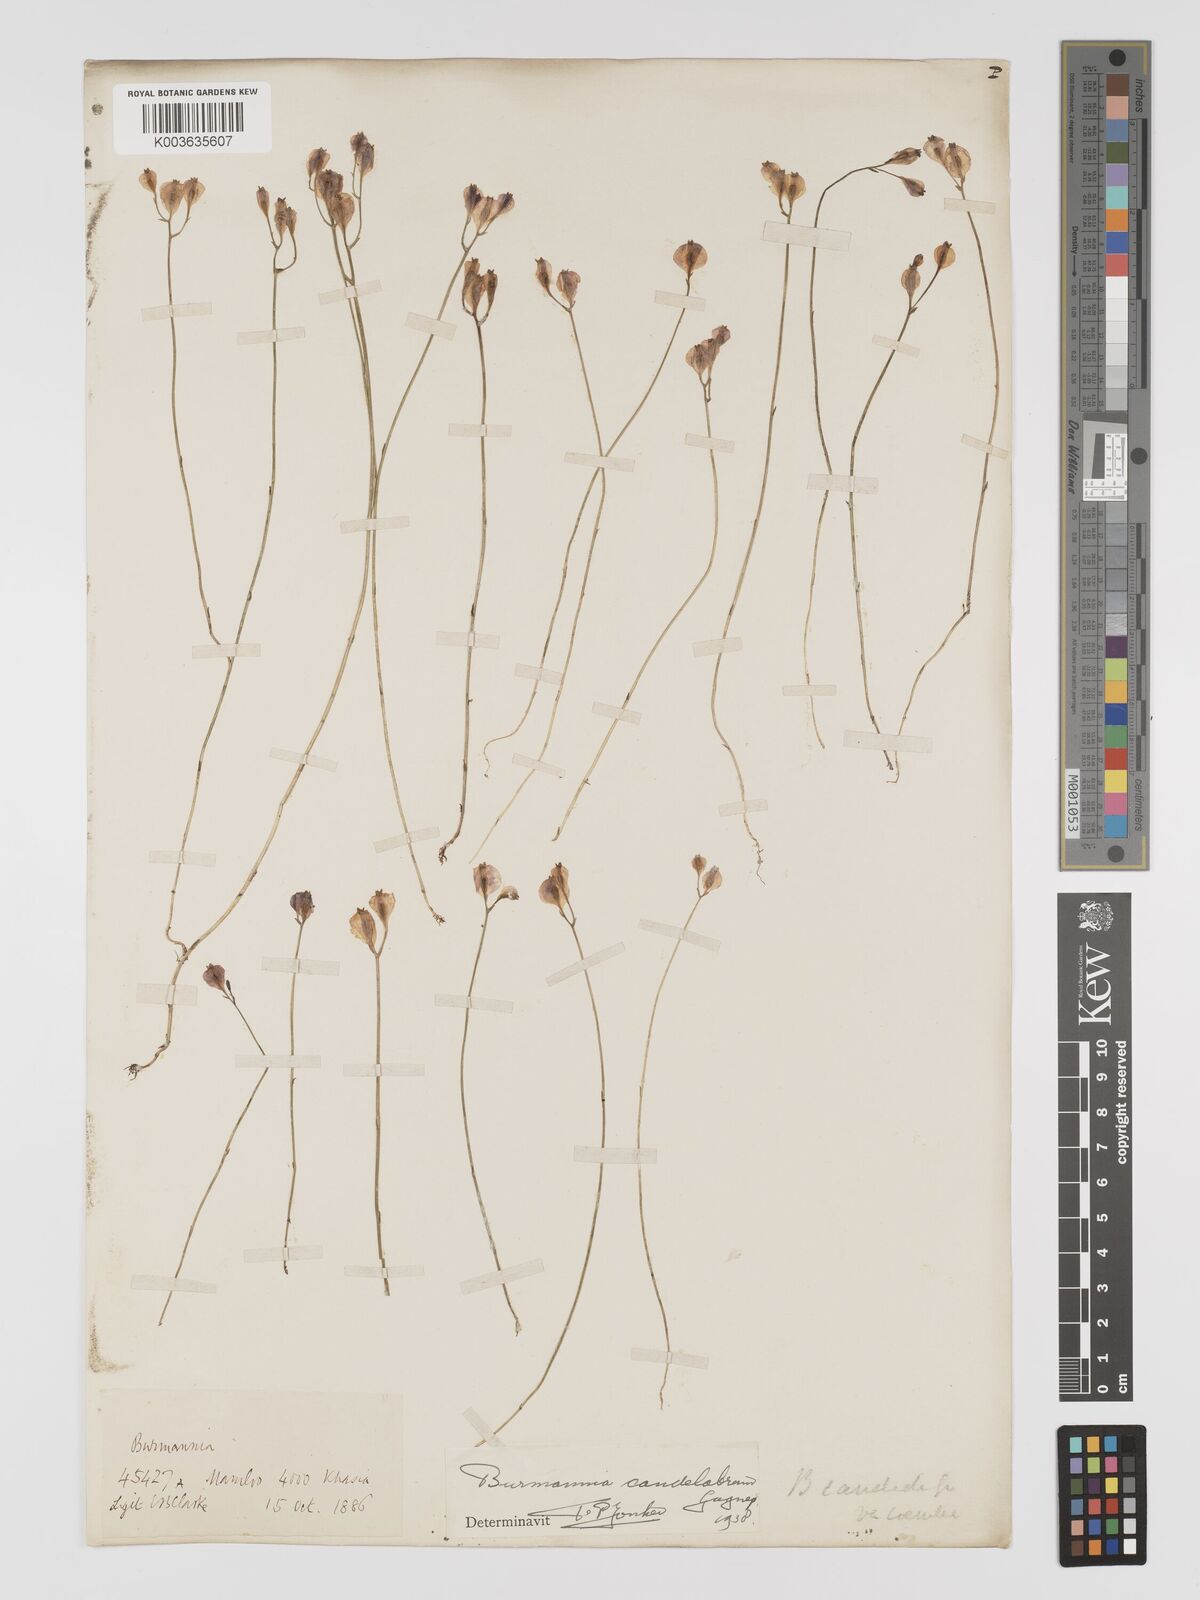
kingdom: Plantae
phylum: Tracheophyta
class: Liliopsida
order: Dioscoreales
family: Burmanniaceae
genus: Burmannia
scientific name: Burmannia candelabrum
